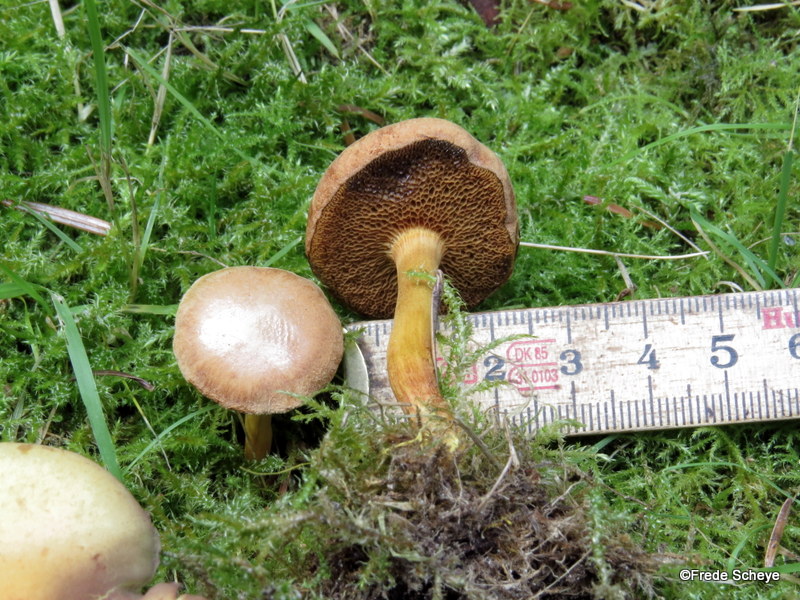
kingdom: Fungi
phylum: Basidiomycota
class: Agaricomycetes
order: Boletales
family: Boletaceae
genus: Chalciporus
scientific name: Chalciporus piperatus
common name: peberrørhat
